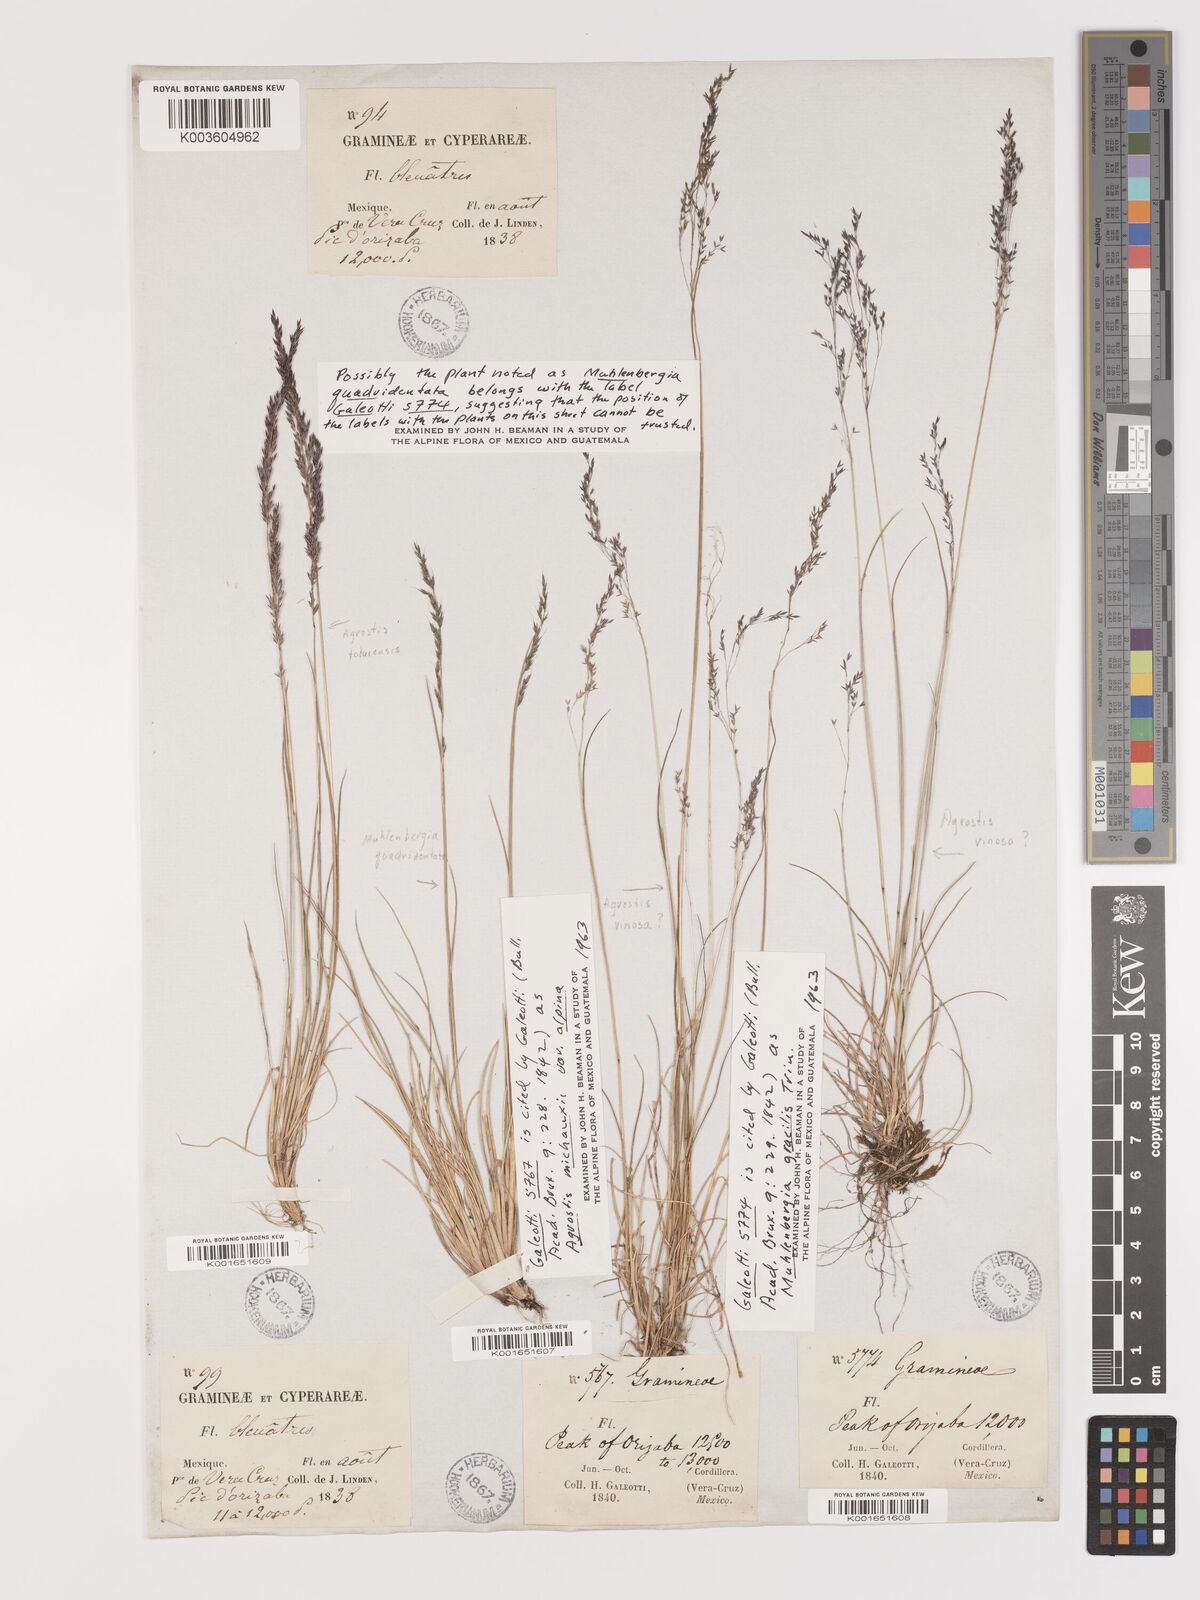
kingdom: Plantae
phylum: Tracheophyta
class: Liliopsida
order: Poales
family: Poaceae
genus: Agrostis
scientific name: Agrostis subpatens
